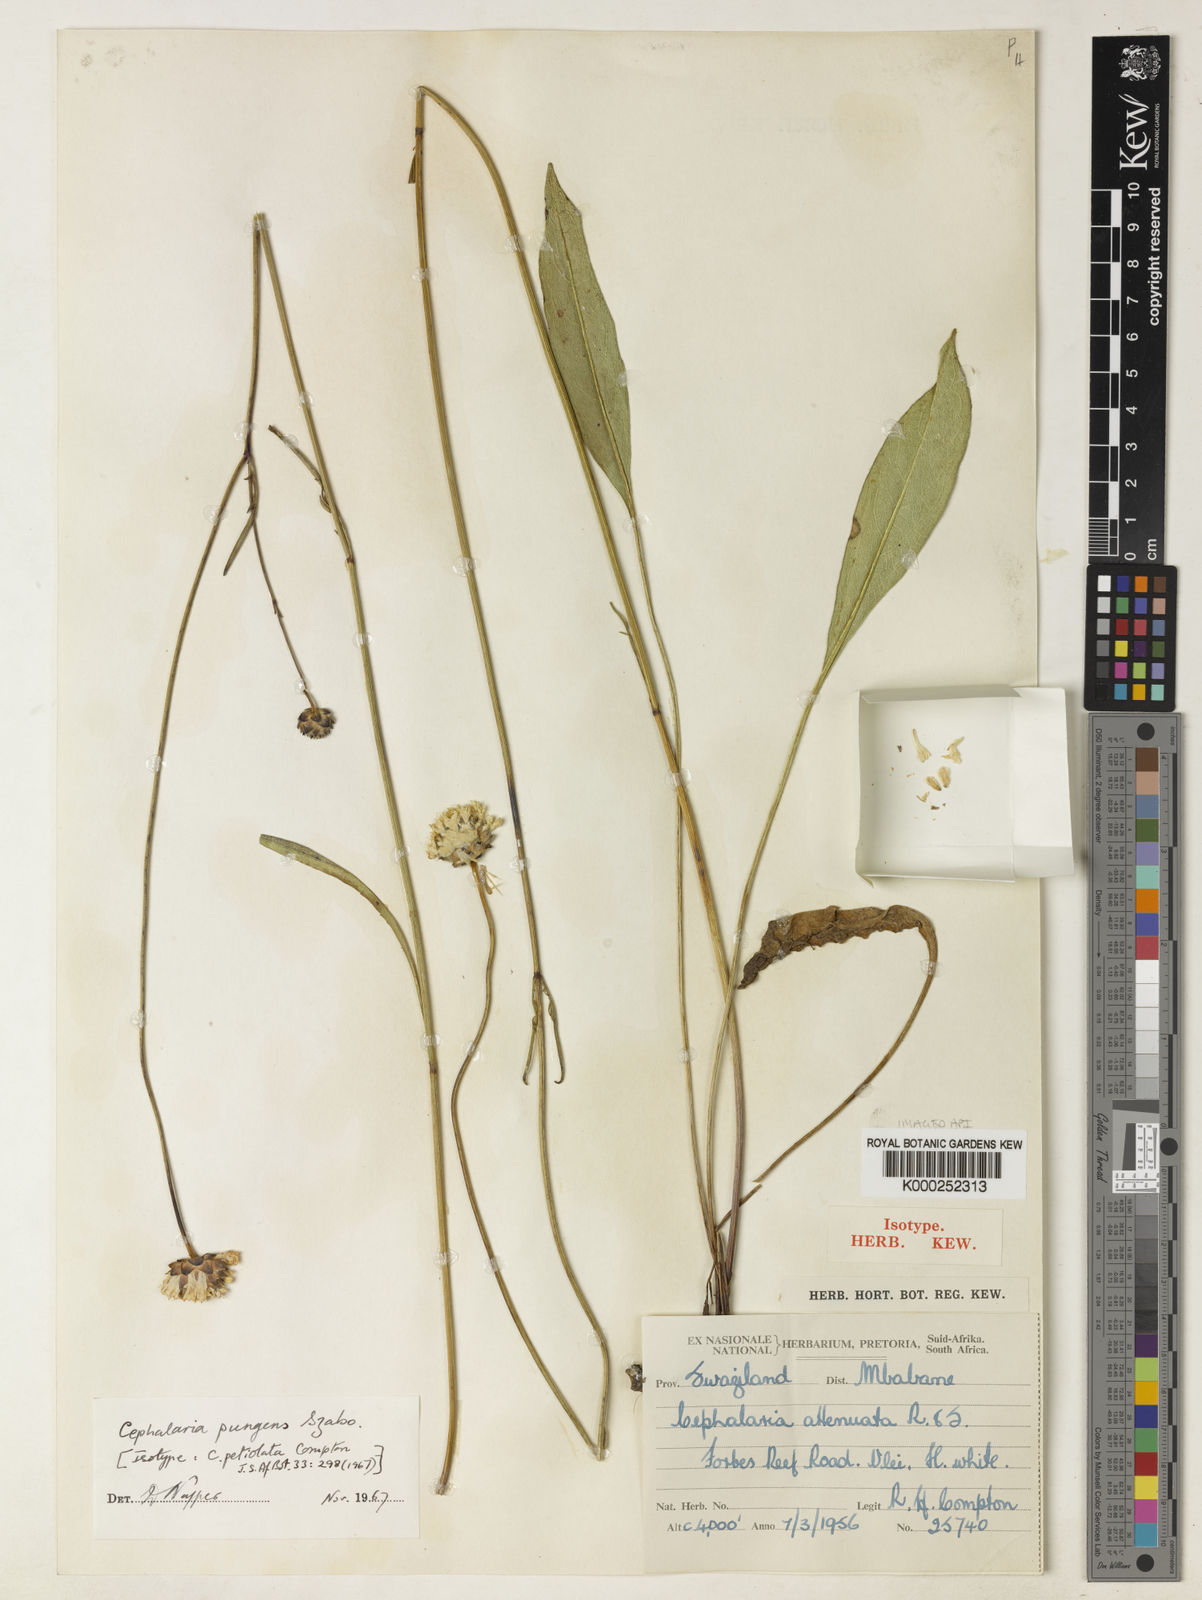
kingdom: Plantae
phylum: Tracheophyta
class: Magnoliopsida
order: Dipsacales
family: Caprifoliaceae
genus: Cephalaria
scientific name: Cephalaria
